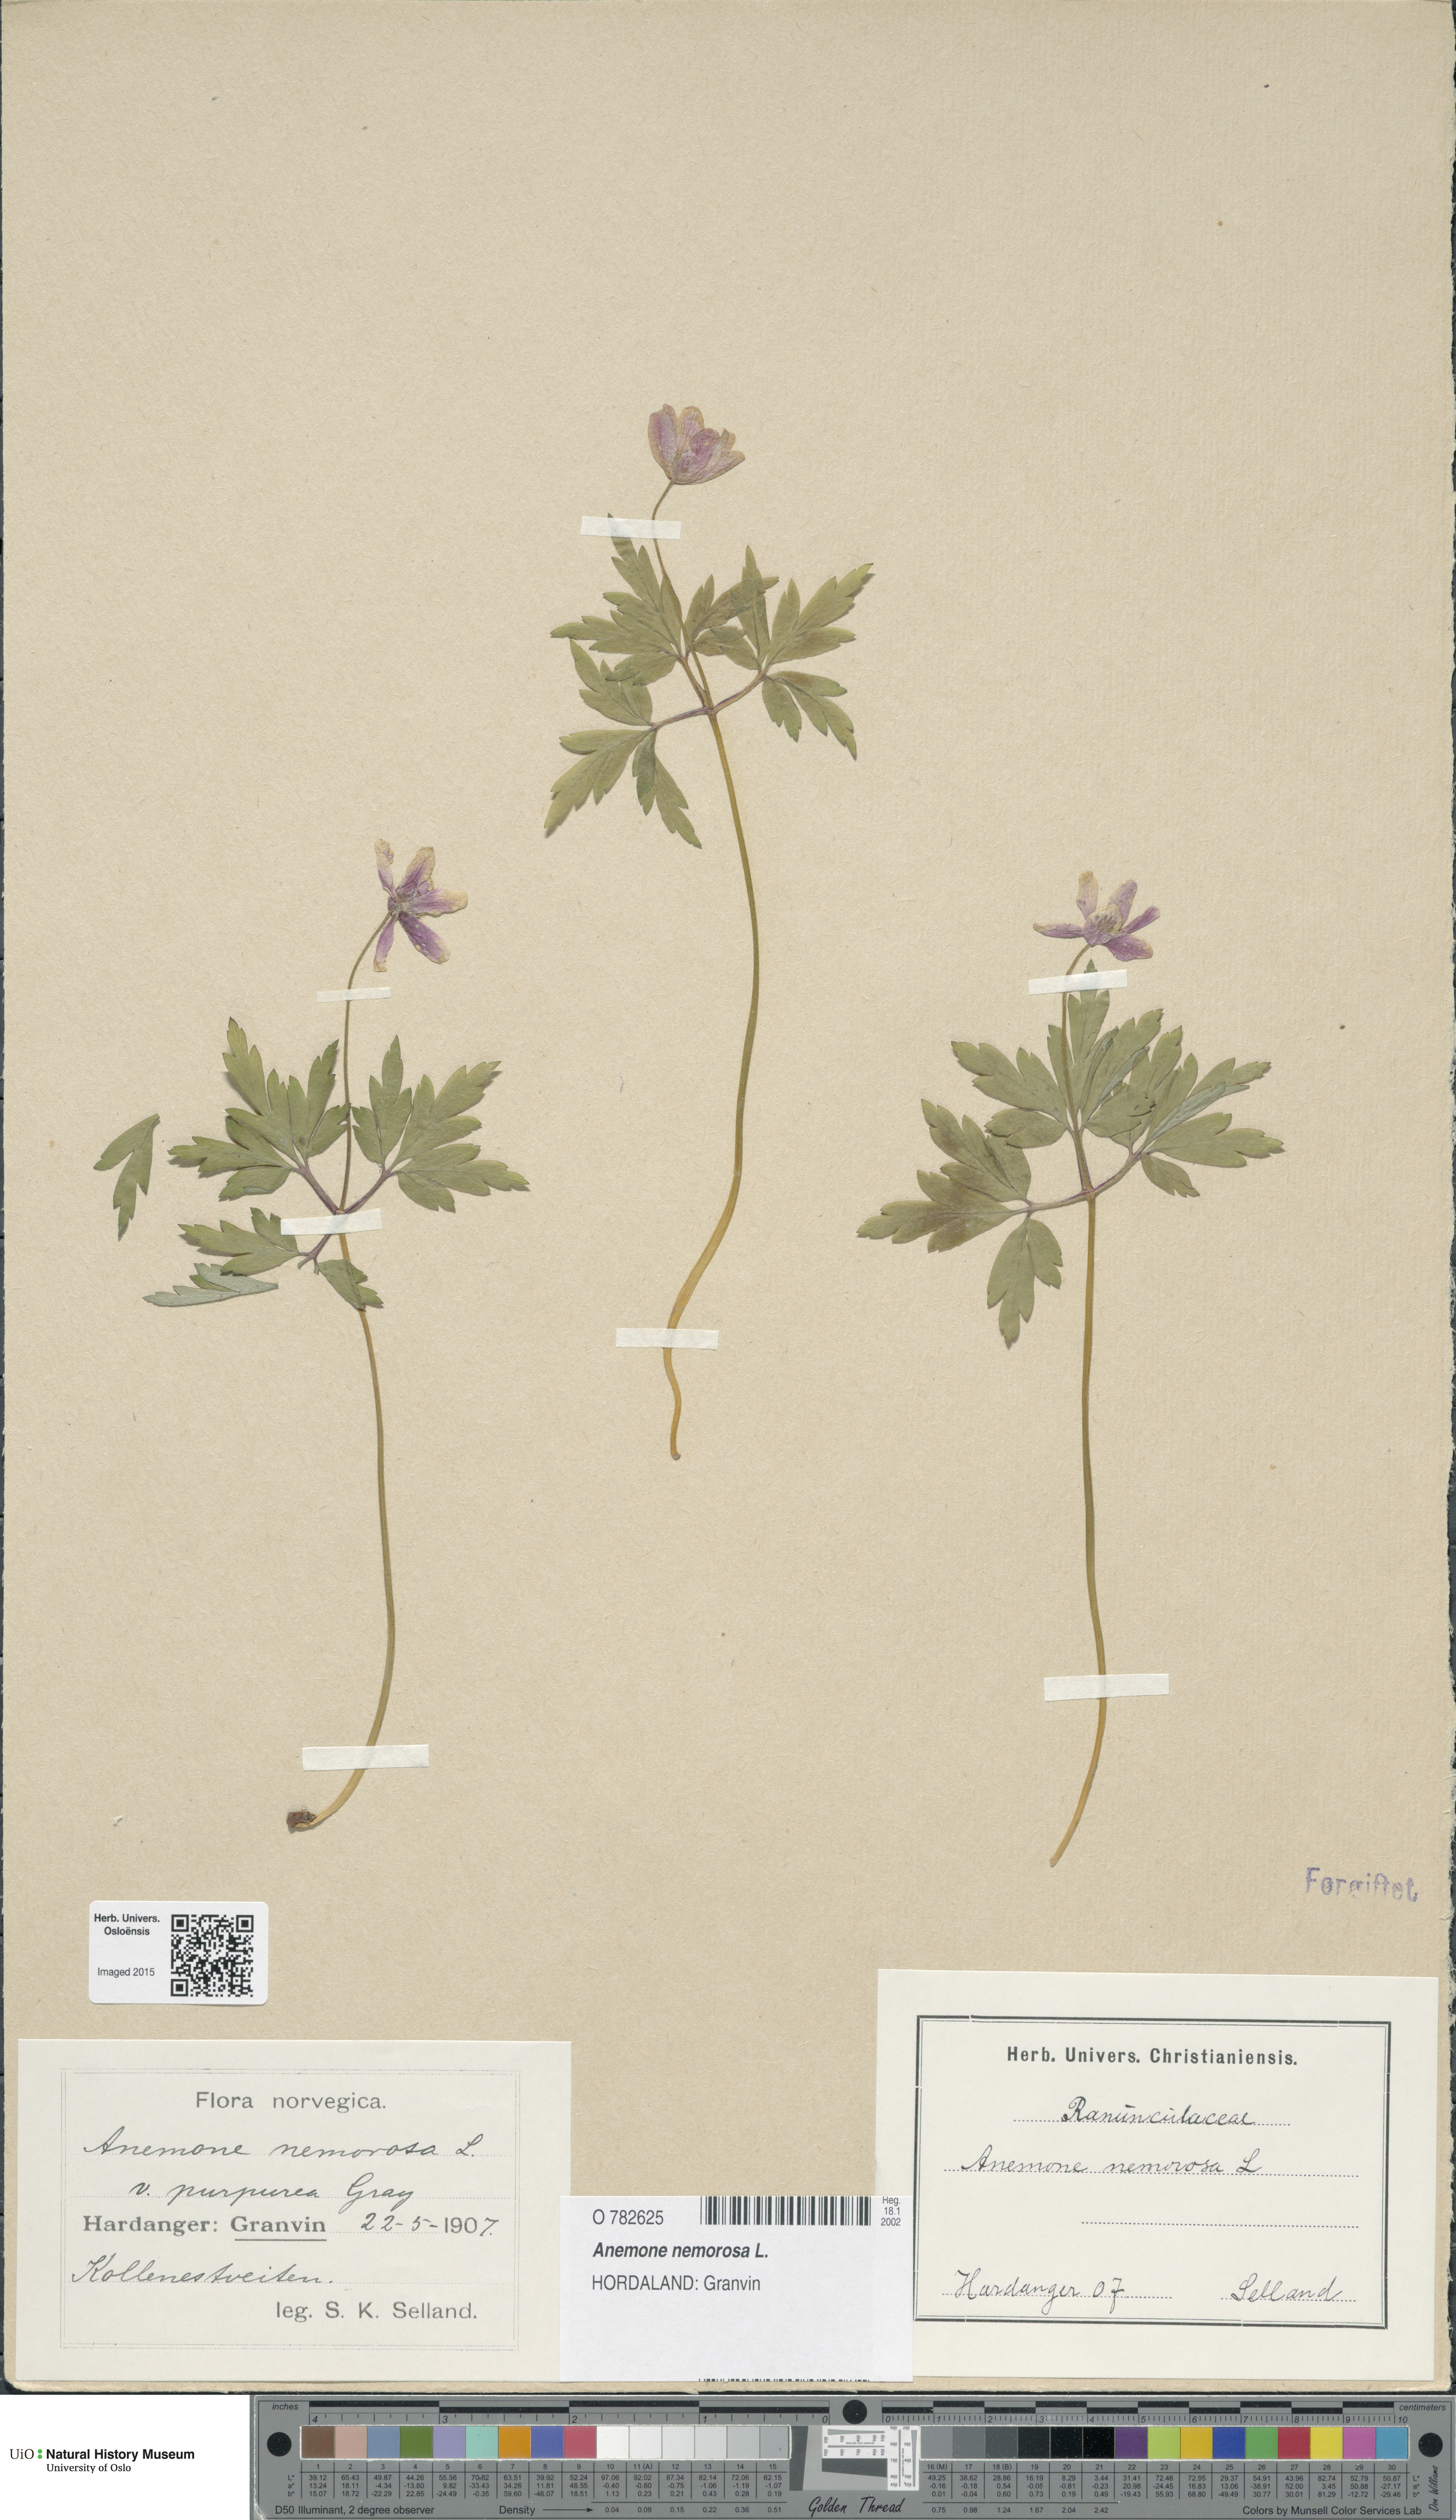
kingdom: Plantae
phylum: Tracheophyta
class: Magnoliopsida
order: Ranunculales
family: Ranunculaceae
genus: Anemone
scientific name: Anemone nemorosa
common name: Wood anemone
